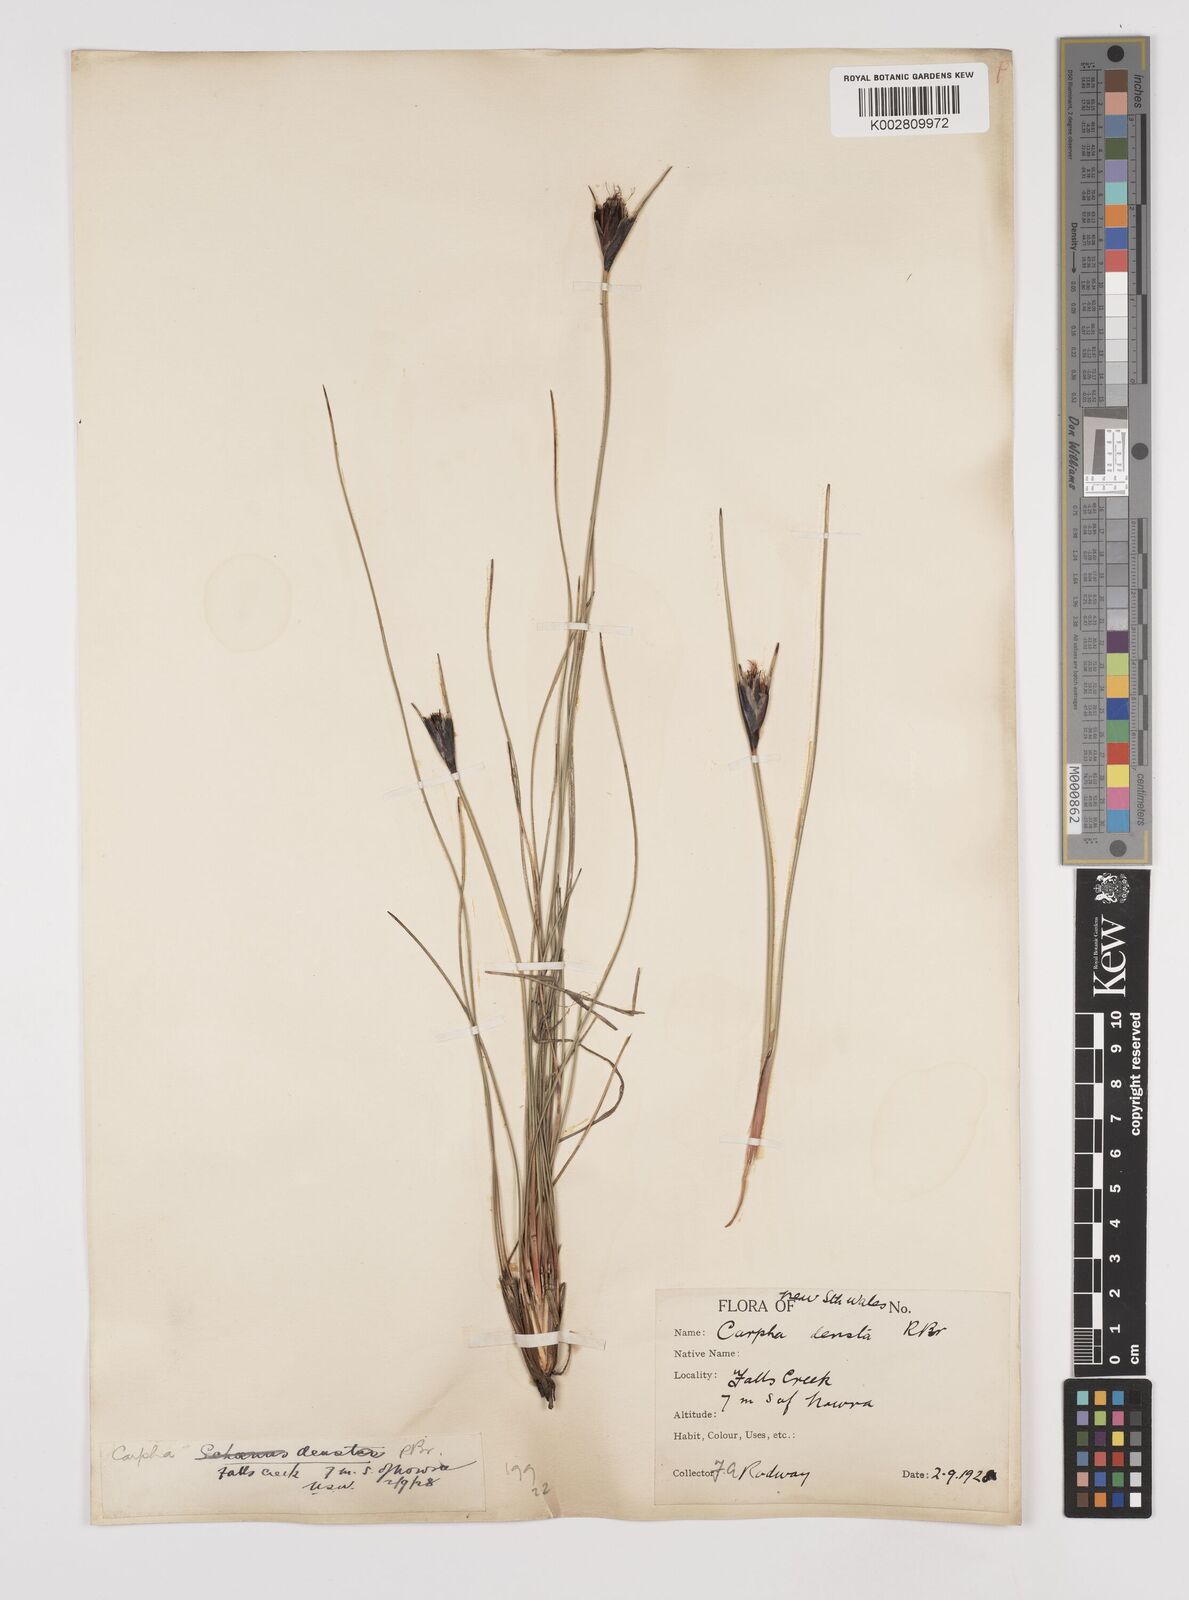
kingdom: Plantae
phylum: Tracheophyta
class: Liliopsida
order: Poales
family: Cyperaceae
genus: Ptilothrix
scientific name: Ptilothrix deusta
